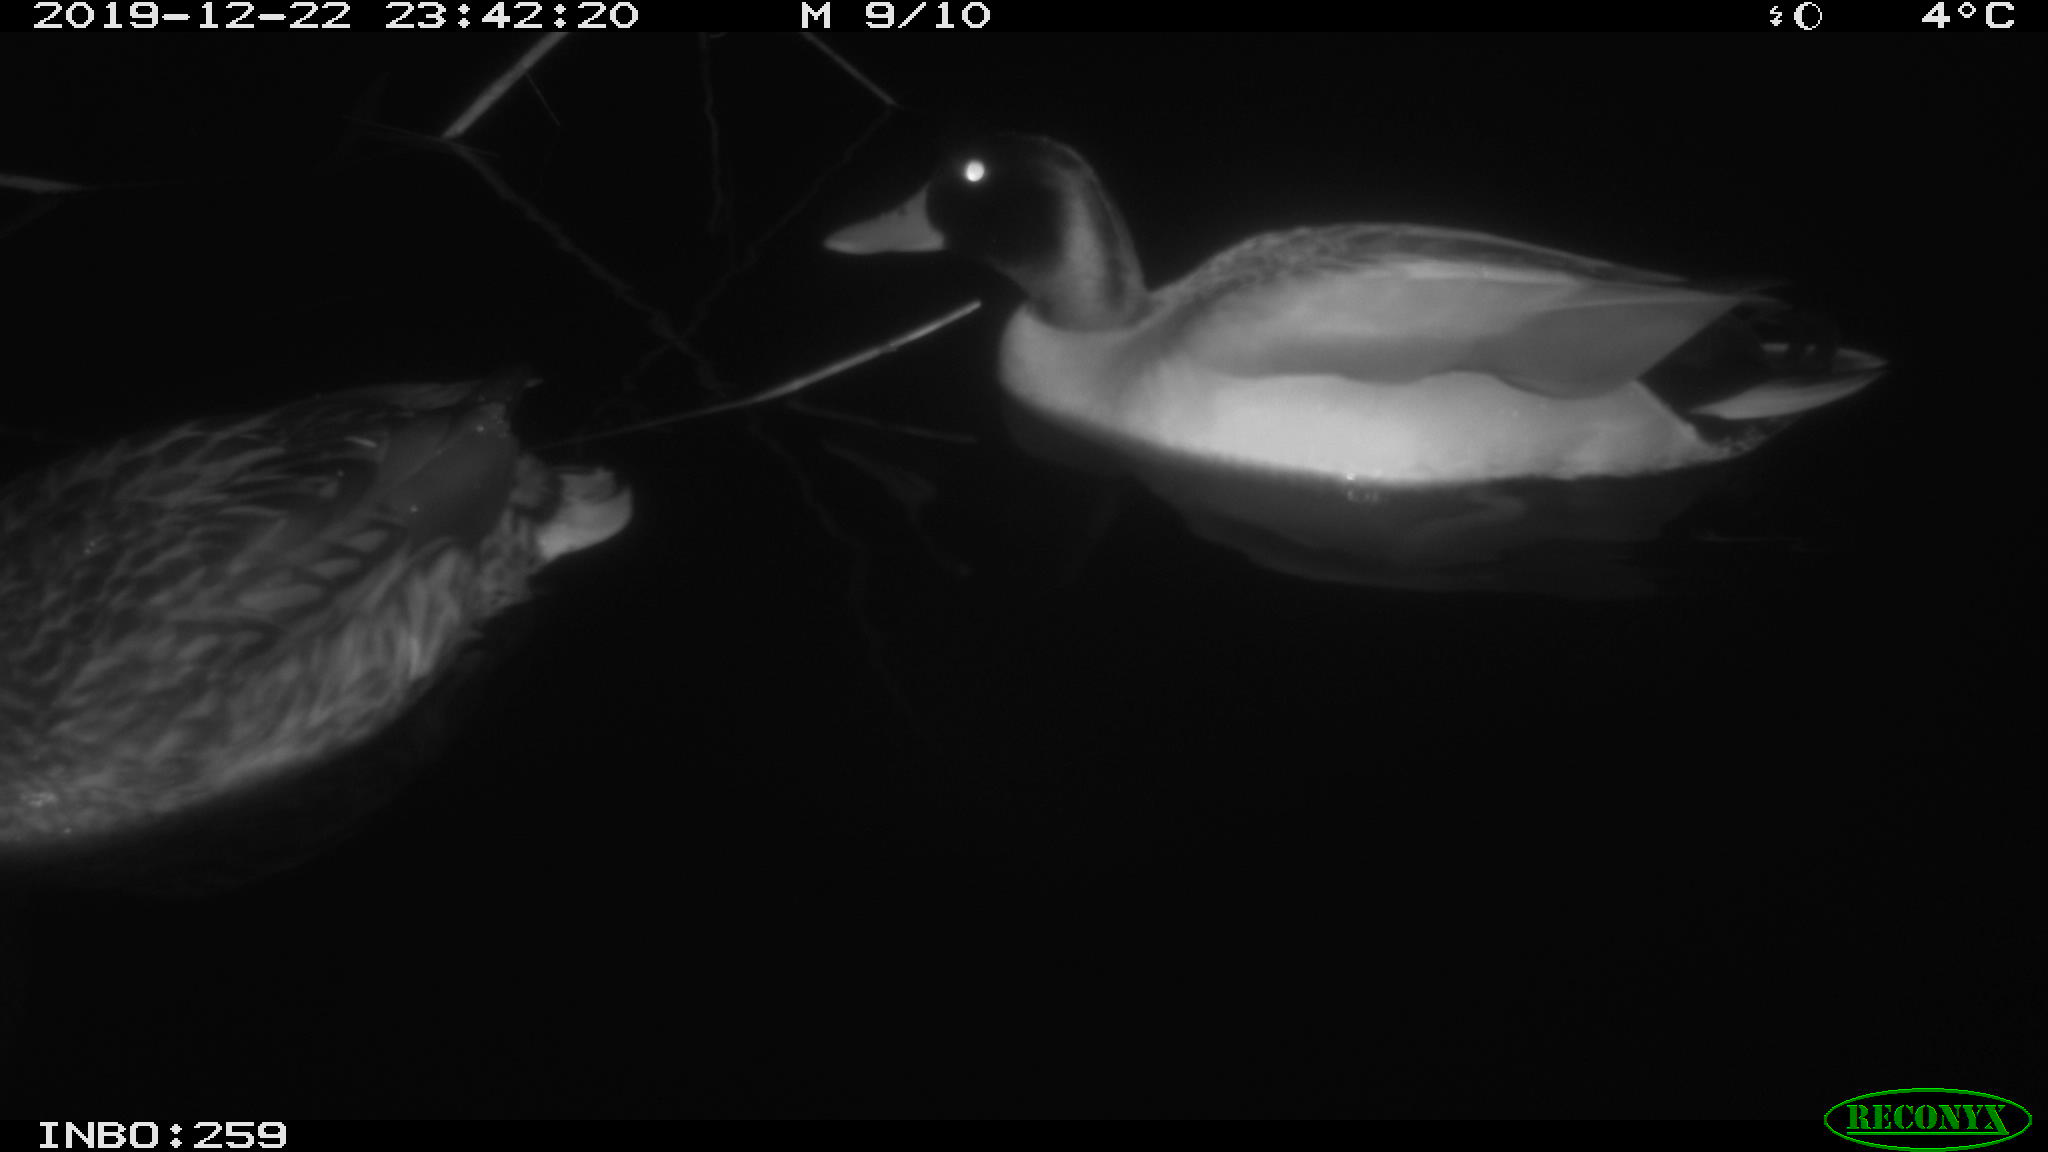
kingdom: Animalia
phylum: Chordata
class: Aves
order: Anseriformes
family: Anatidae
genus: Anas
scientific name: Anas platyrhynchos
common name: Mallard
